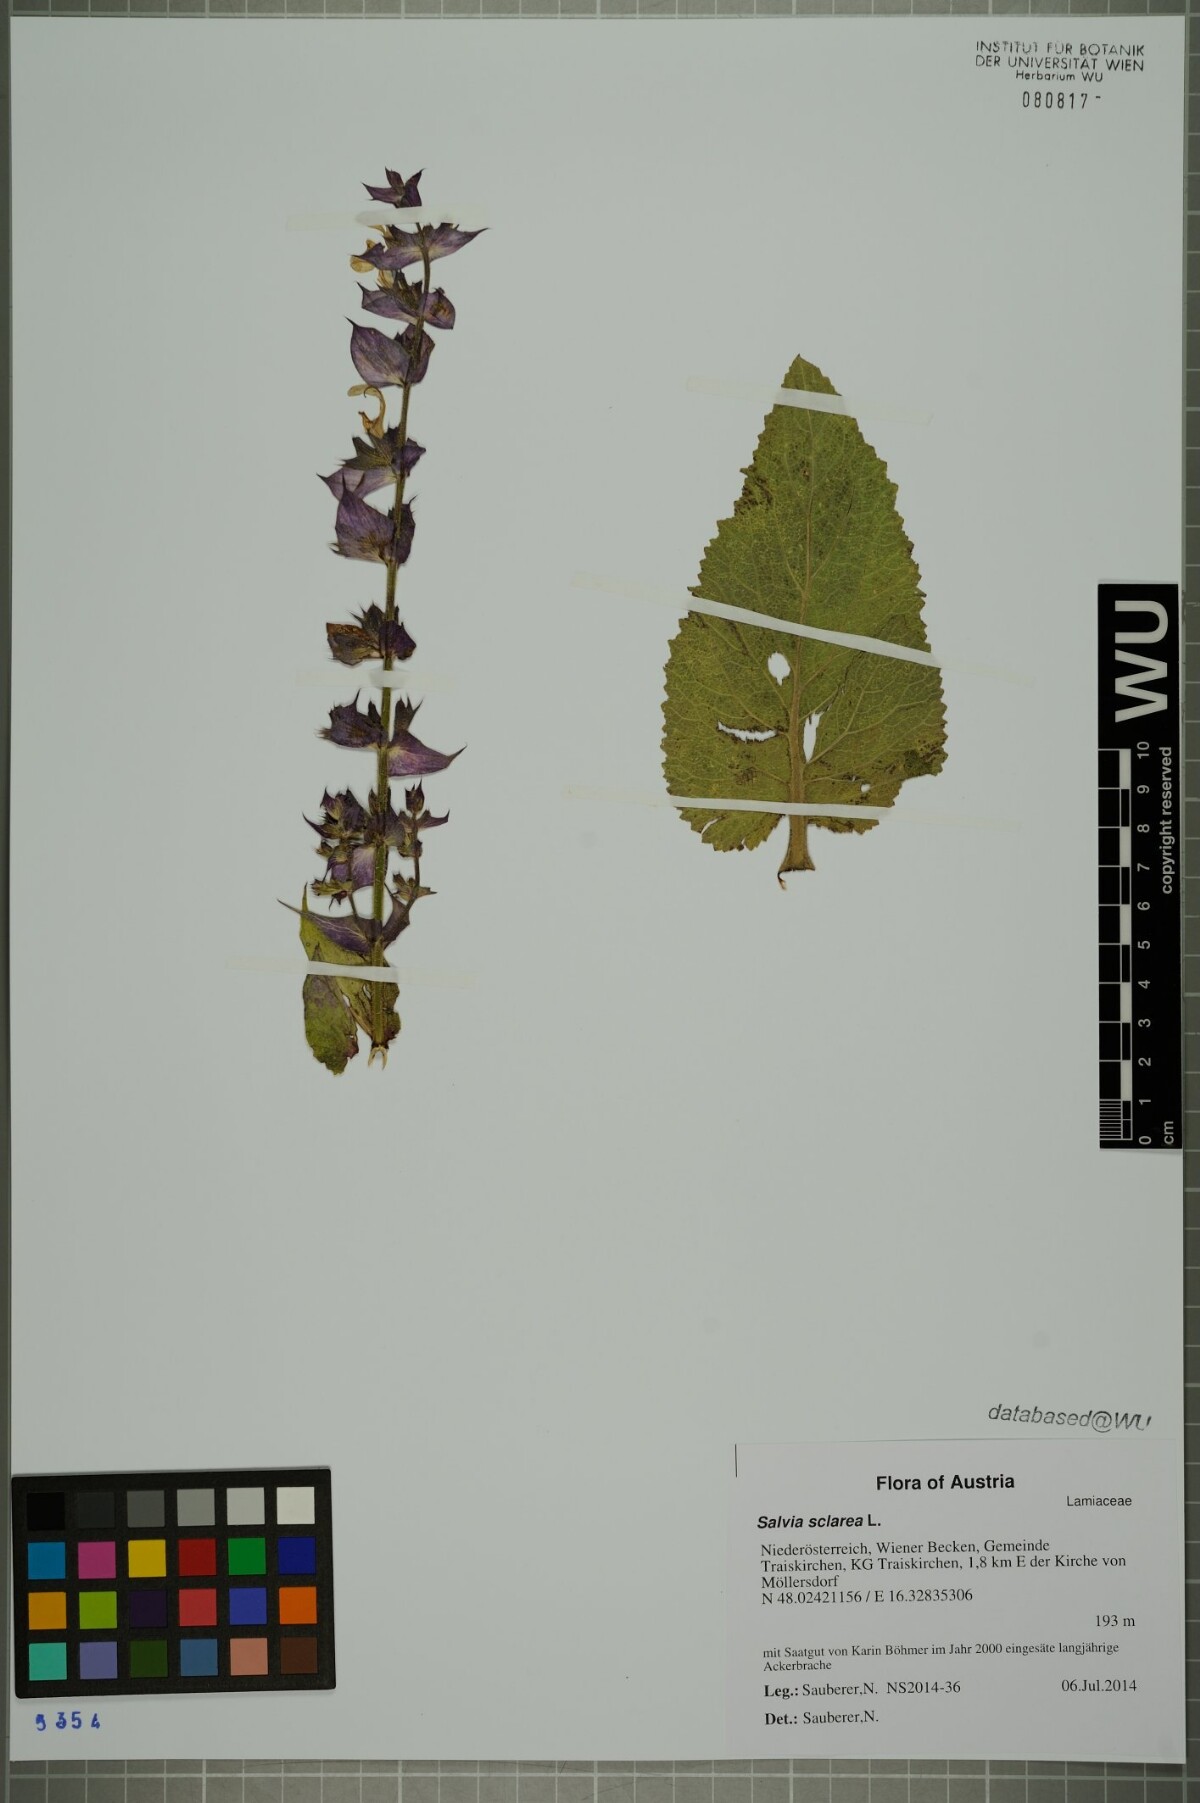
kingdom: Plantae
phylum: Tracheophyta
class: Magnoliopsida
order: Lamiales
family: Lamiaceae
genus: Salvia
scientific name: Salvia sclarea
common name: Clary
